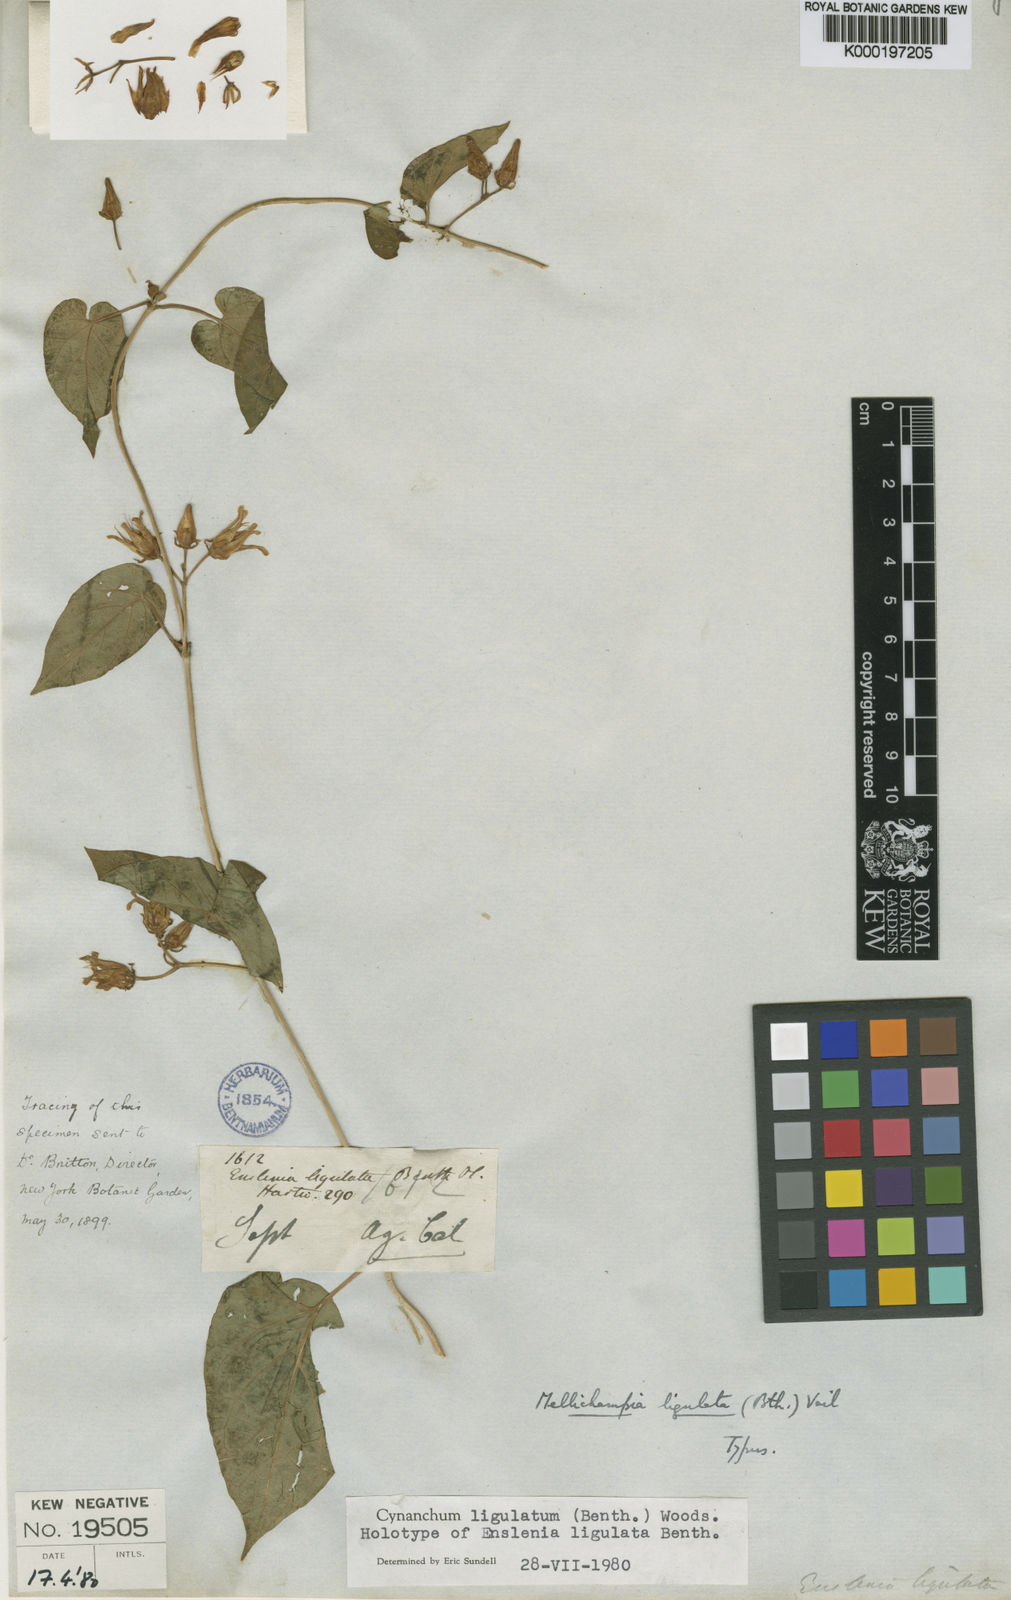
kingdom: Plantae
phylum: Tracheophyta
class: Magnoliopsida
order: Gentianales
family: Apocynaceae
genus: Cynanchum
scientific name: Cynanchum ligulatum
